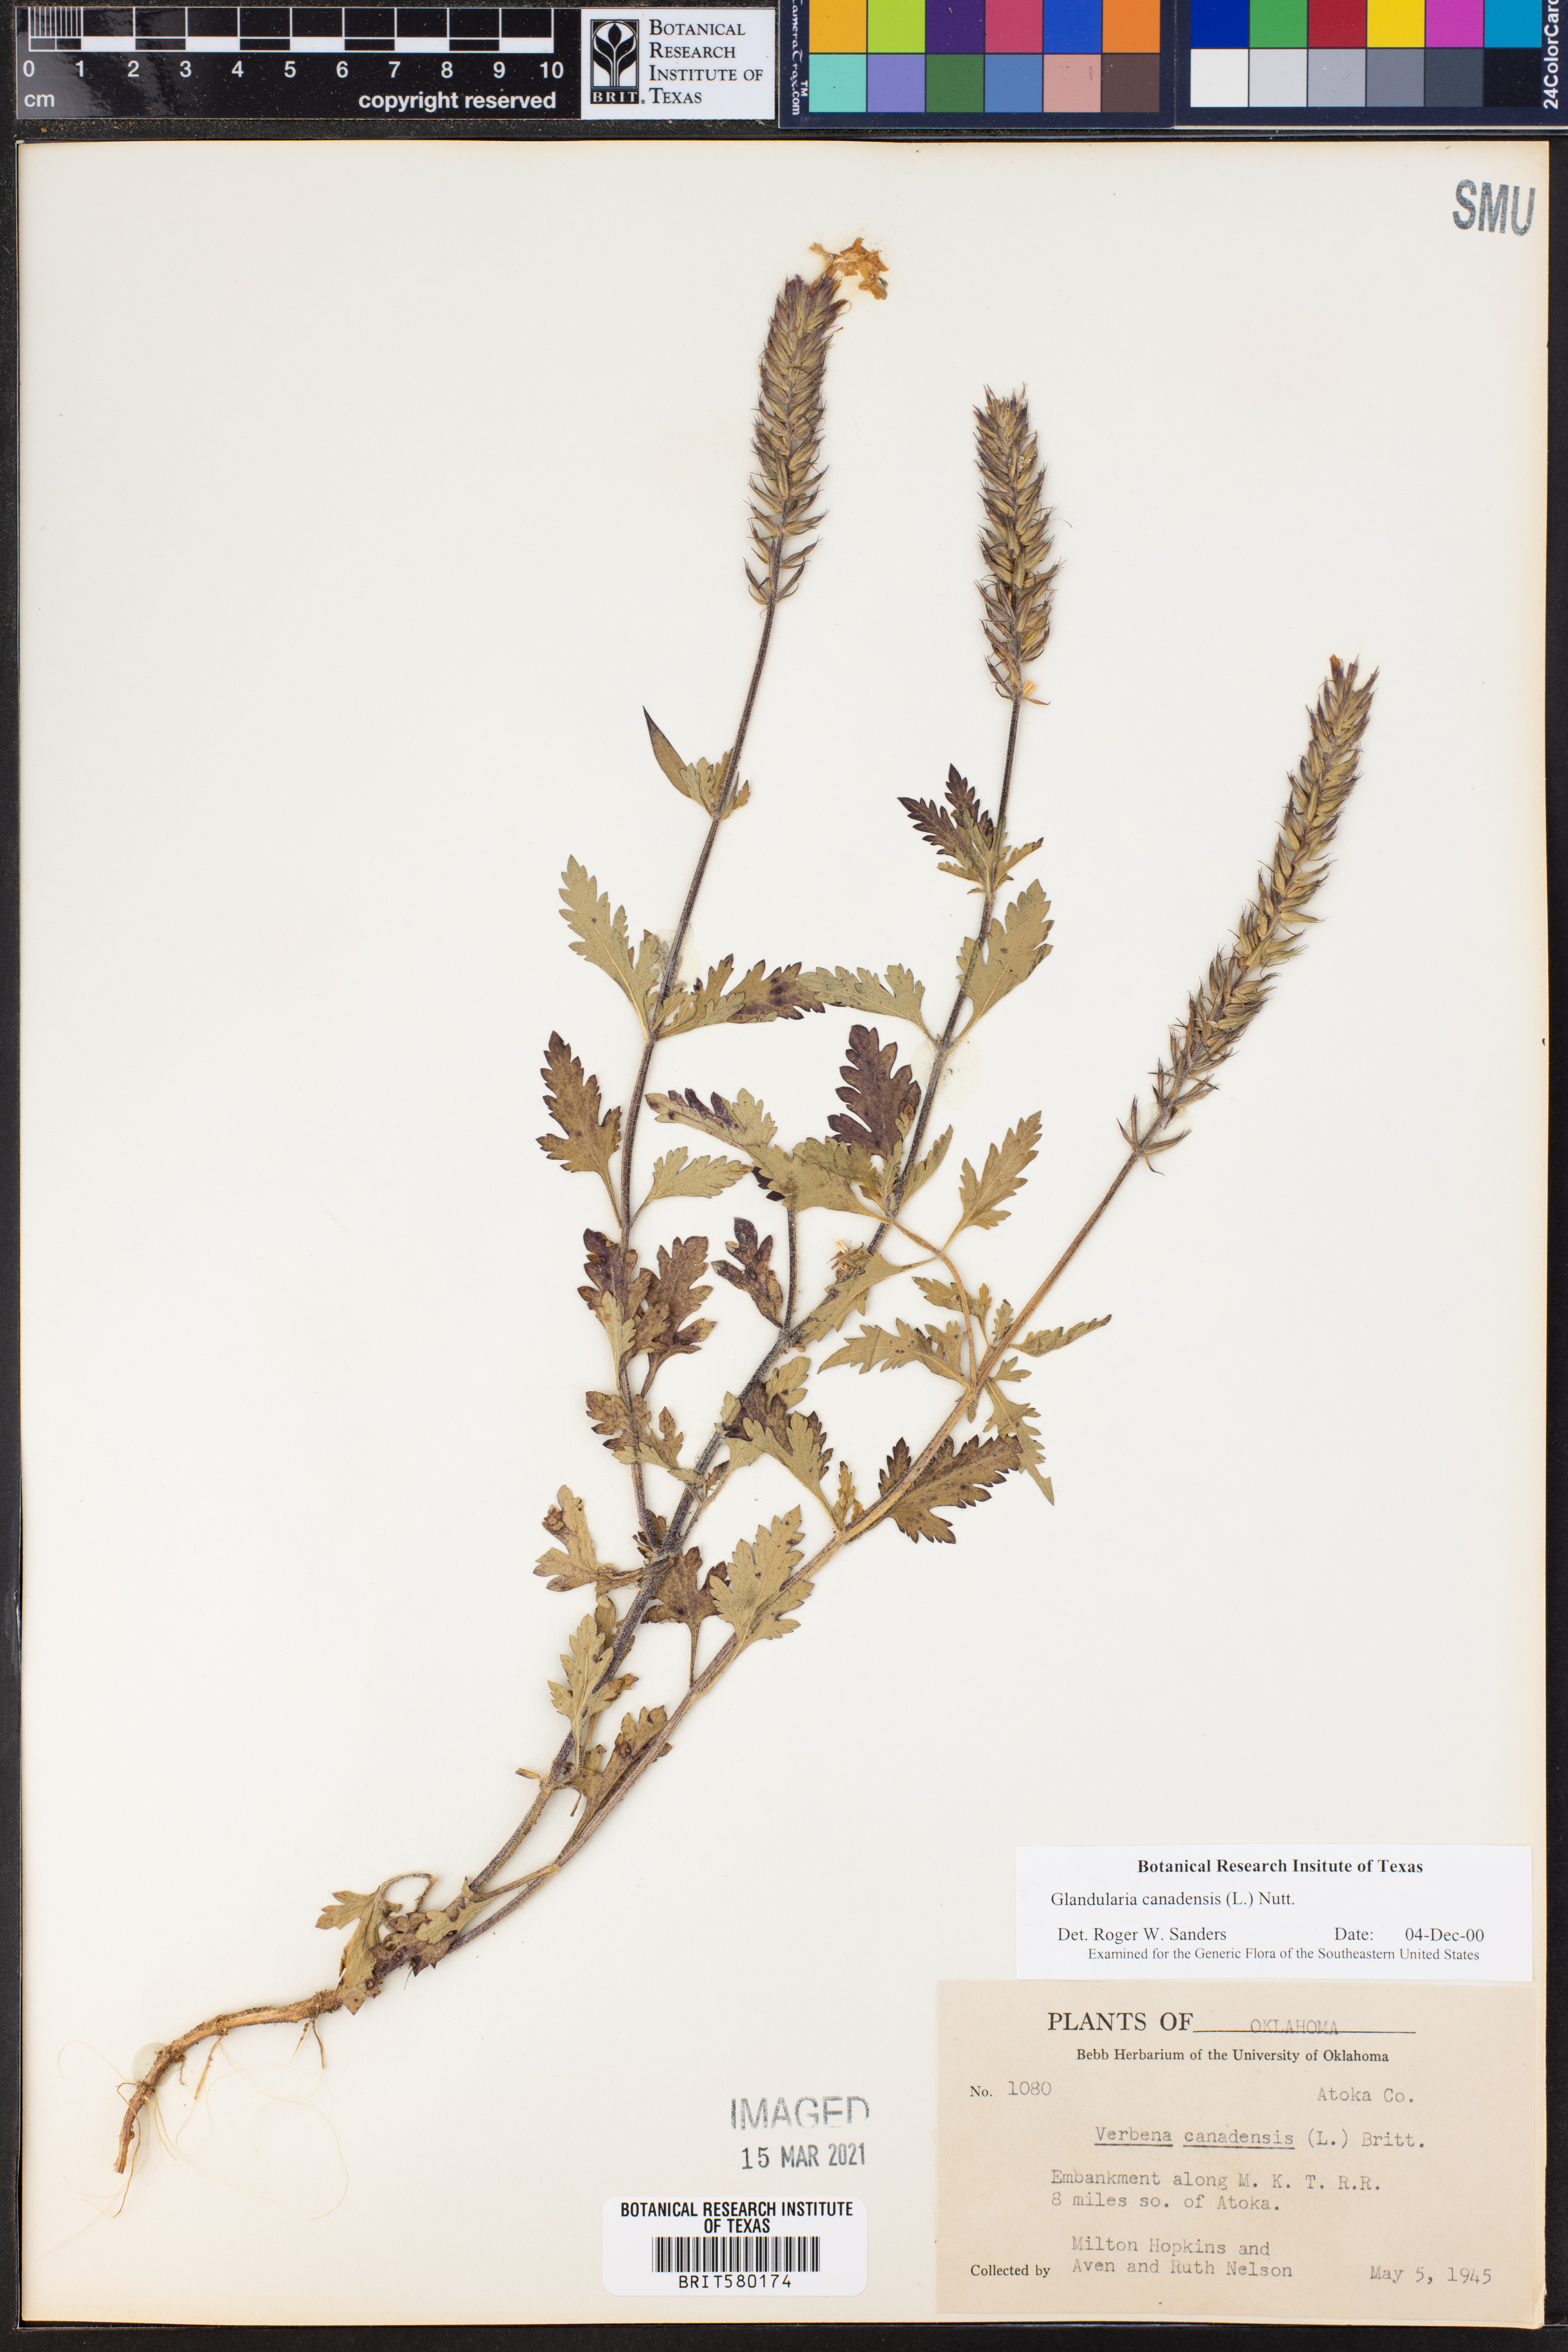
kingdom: Plantae
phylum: Tracheophyta
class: Magnoliopsida
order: Lamiales
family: Verbenaceae
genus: Verbena
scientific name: Verbena canadensis
